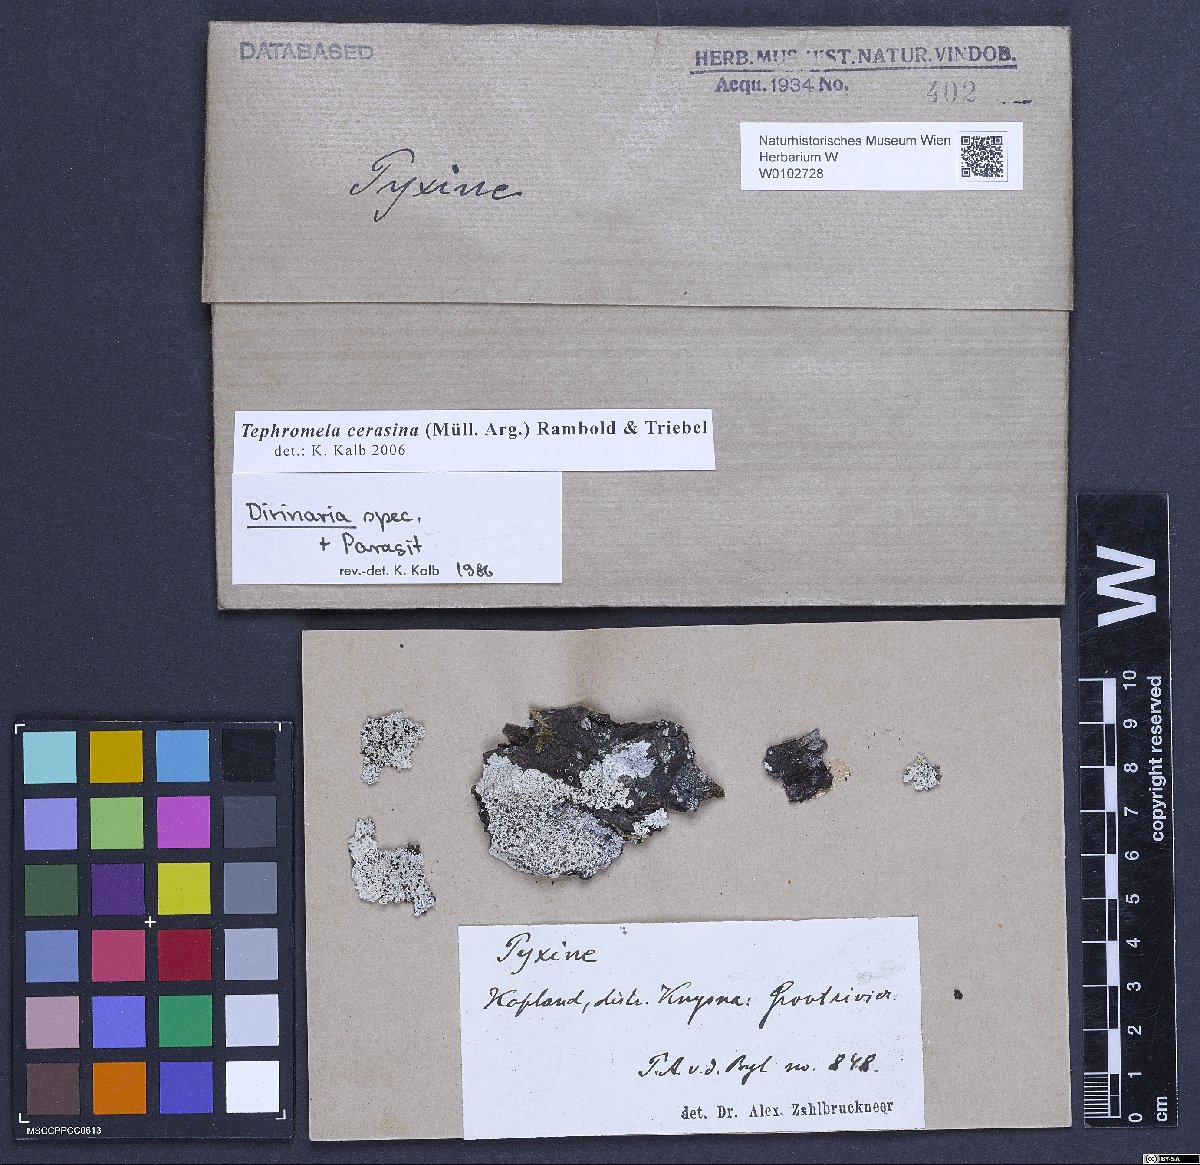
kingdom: Fungi
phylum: Ascomycota
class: Lecanoromycetes
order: Lecanorales
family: Tephromelataceae
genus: Tephromela
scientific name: Tephromela cerasina
